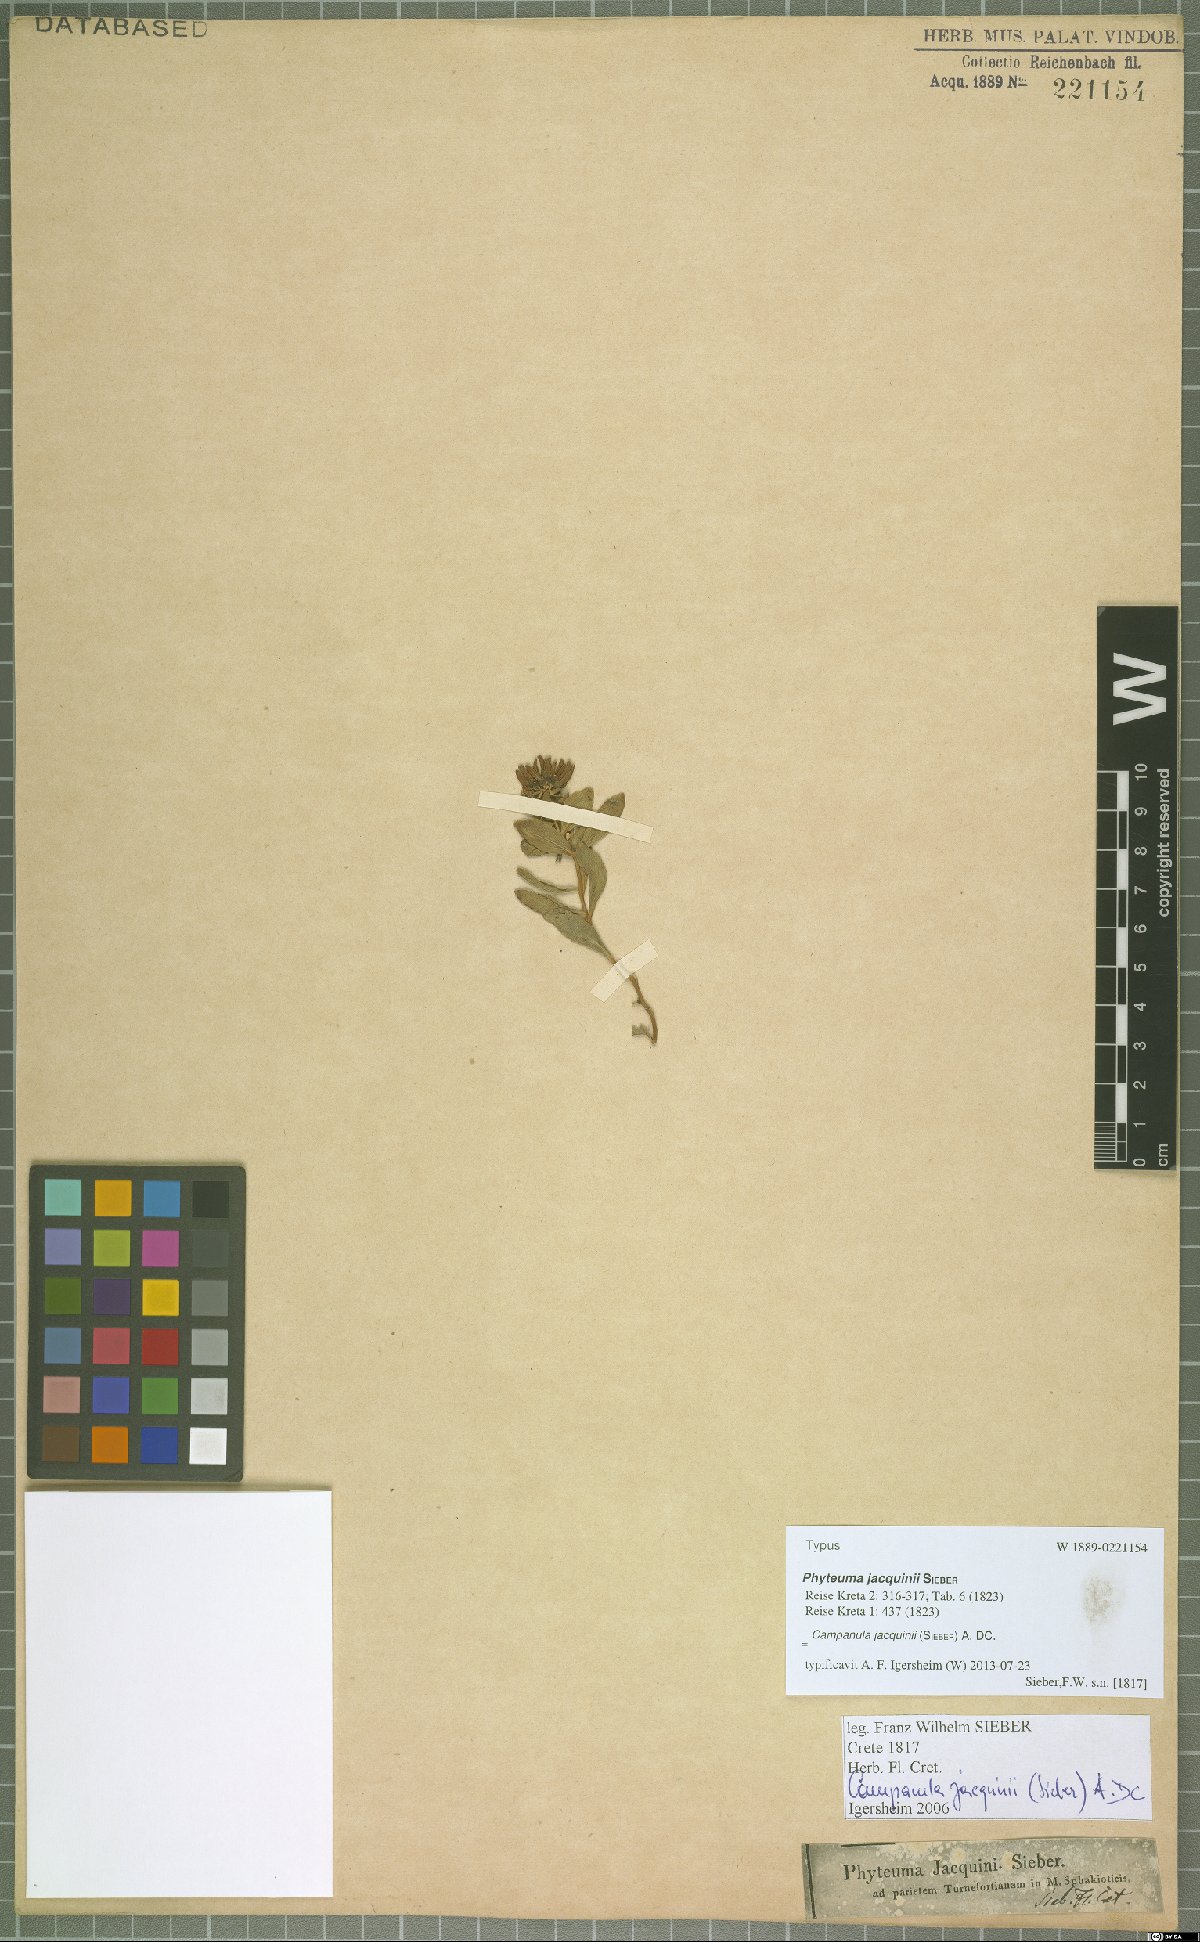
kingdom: Plantae
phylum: Tracheophyta
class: Magnoliopsida
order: Asterales
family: Campanulaceae
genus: Campanula
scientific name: Campanula jacquinii
